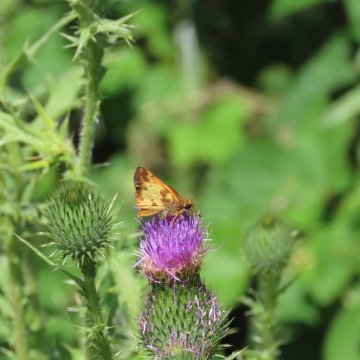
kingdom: Animalia
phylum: Arthropoda
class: Insecta
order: Lepidoptera
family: Hesperiidae
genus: Lon
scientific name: Lon zabulon
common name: Zabulon Skipper
